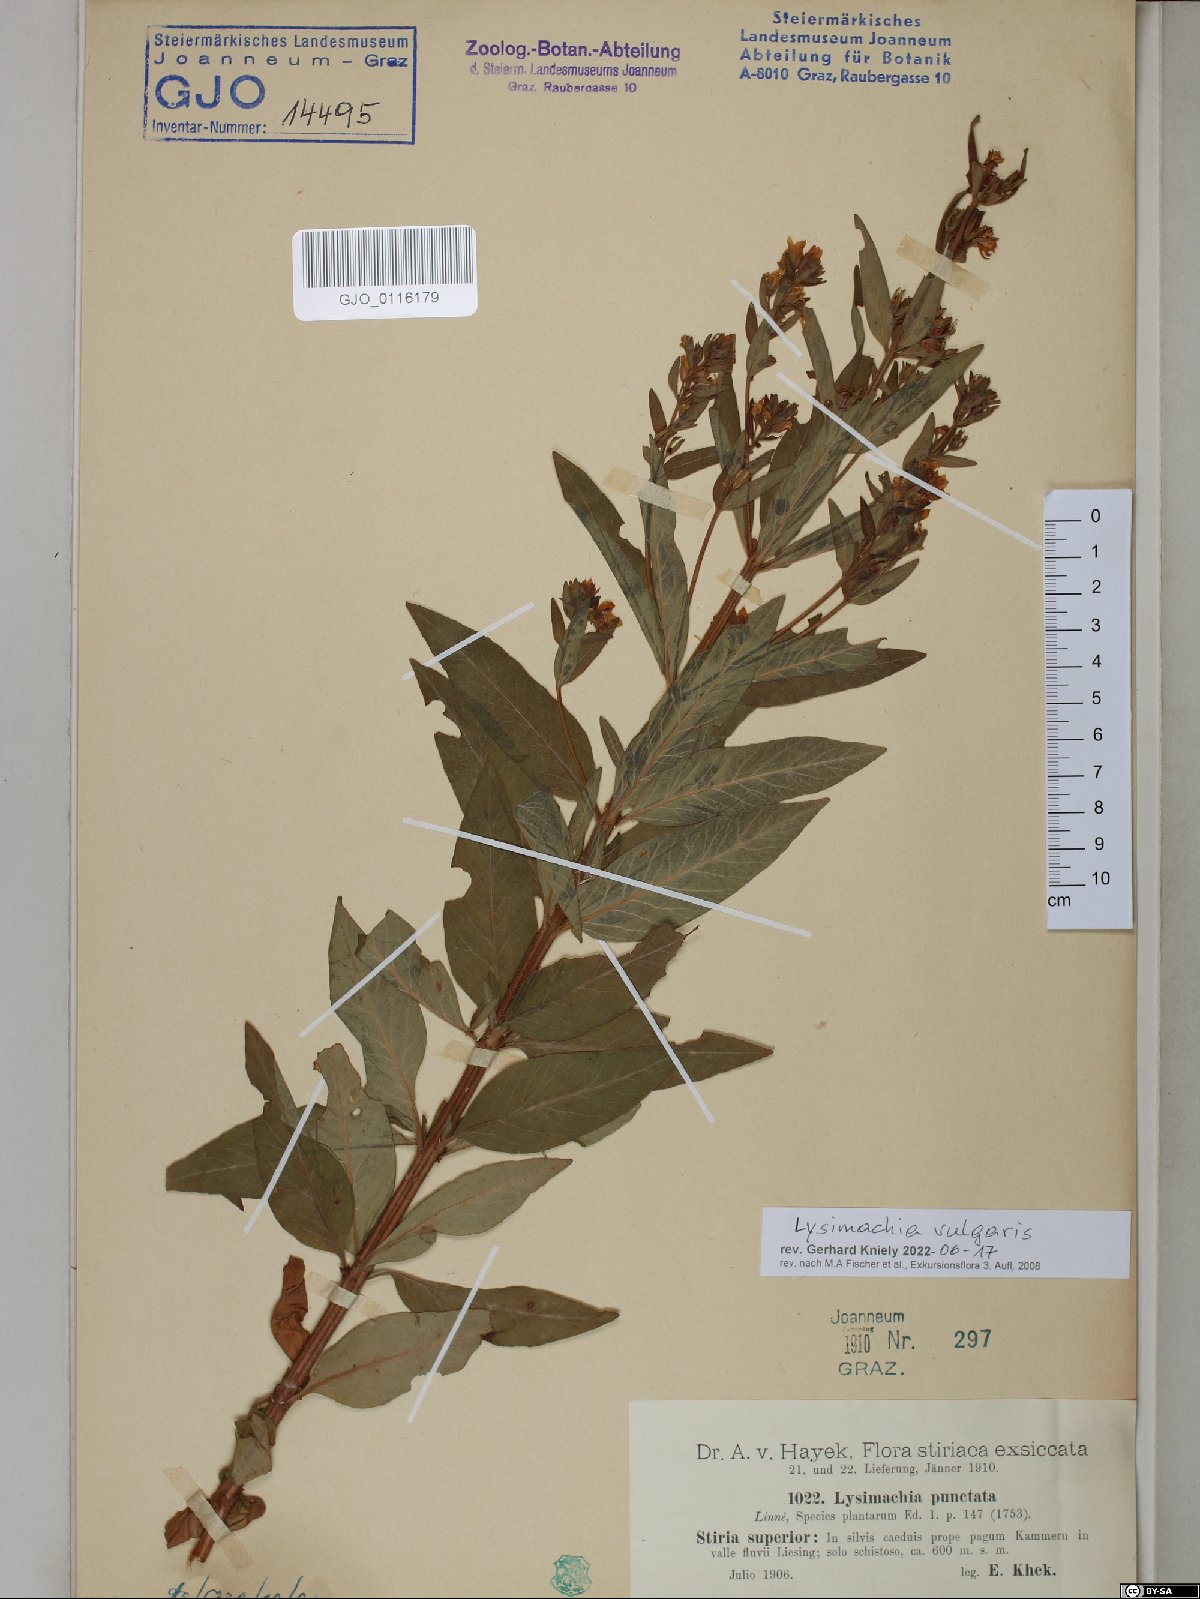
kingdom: Plantae
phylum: Tracheophyta
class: Magnoliopsida
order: Ericales
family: Primulaceae
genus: Lysimachia
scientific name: Lysimachia vulgaris
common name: Yellow loosestrife
